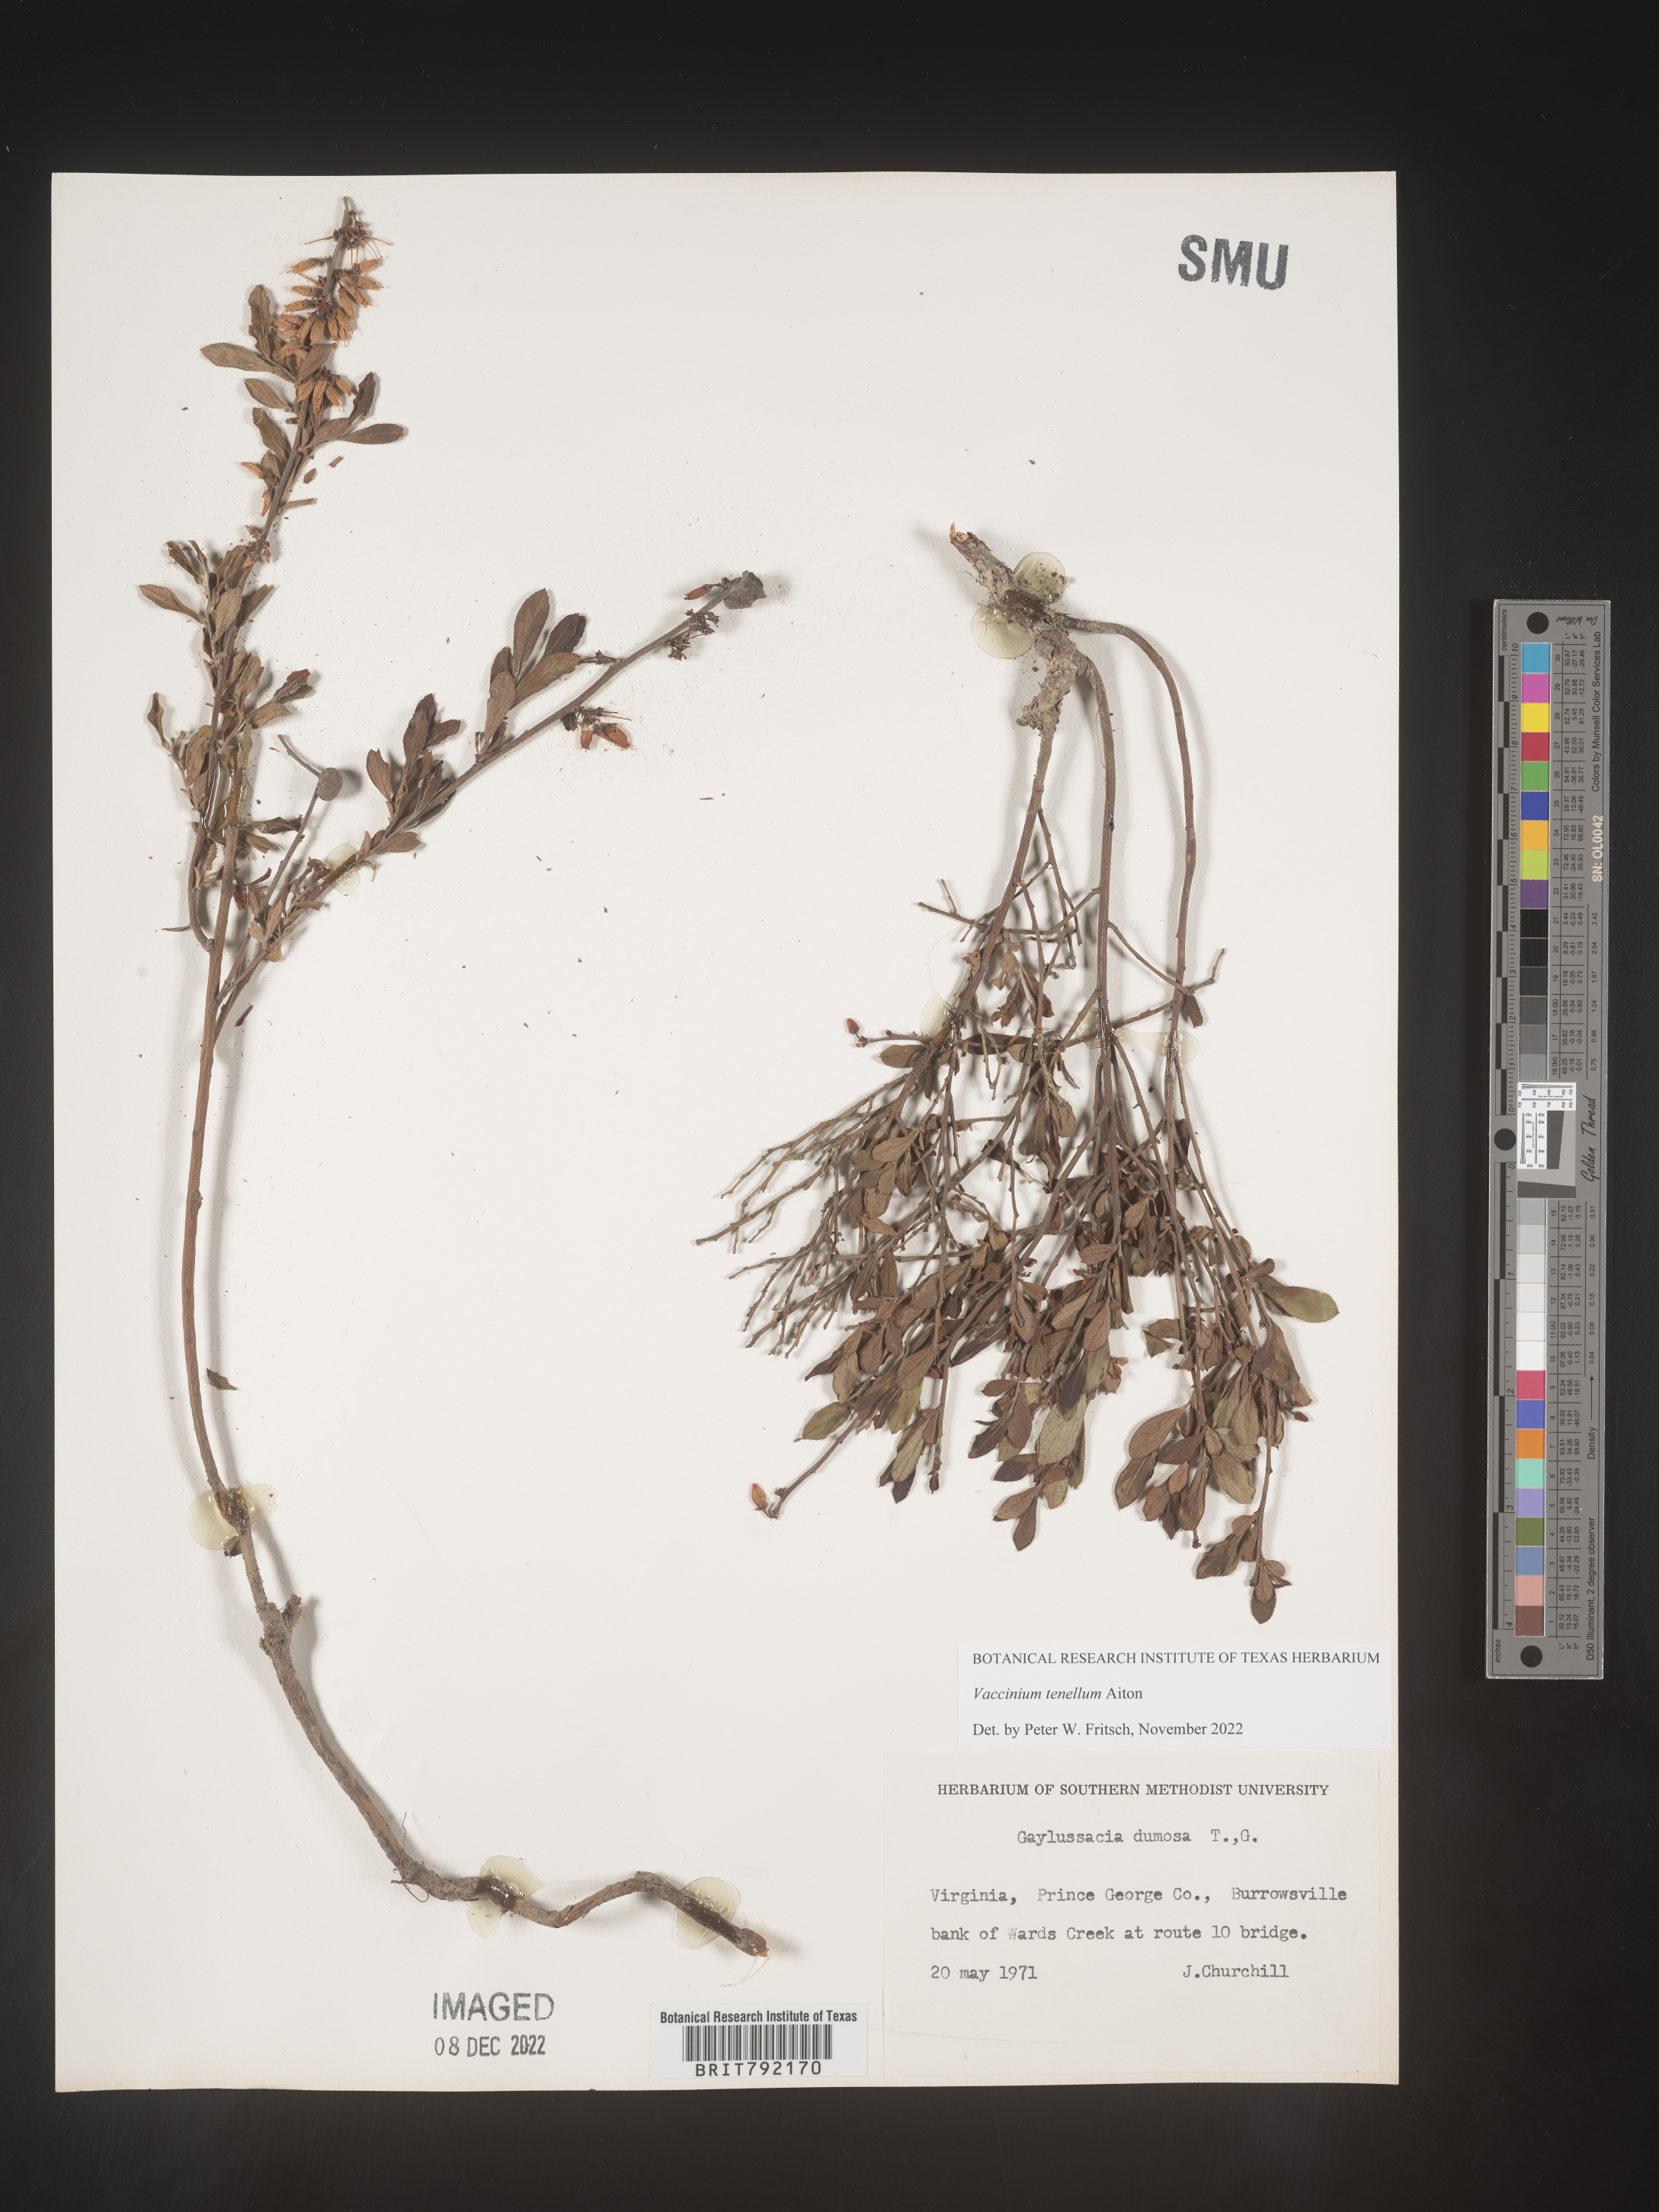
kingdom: Plantae
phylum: Tracheophyta
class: Magnoliopsida
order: Ericales
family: Ericaceae
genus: Vaccinium
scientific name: Vaccinium tenellum
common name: Southern blueberry
